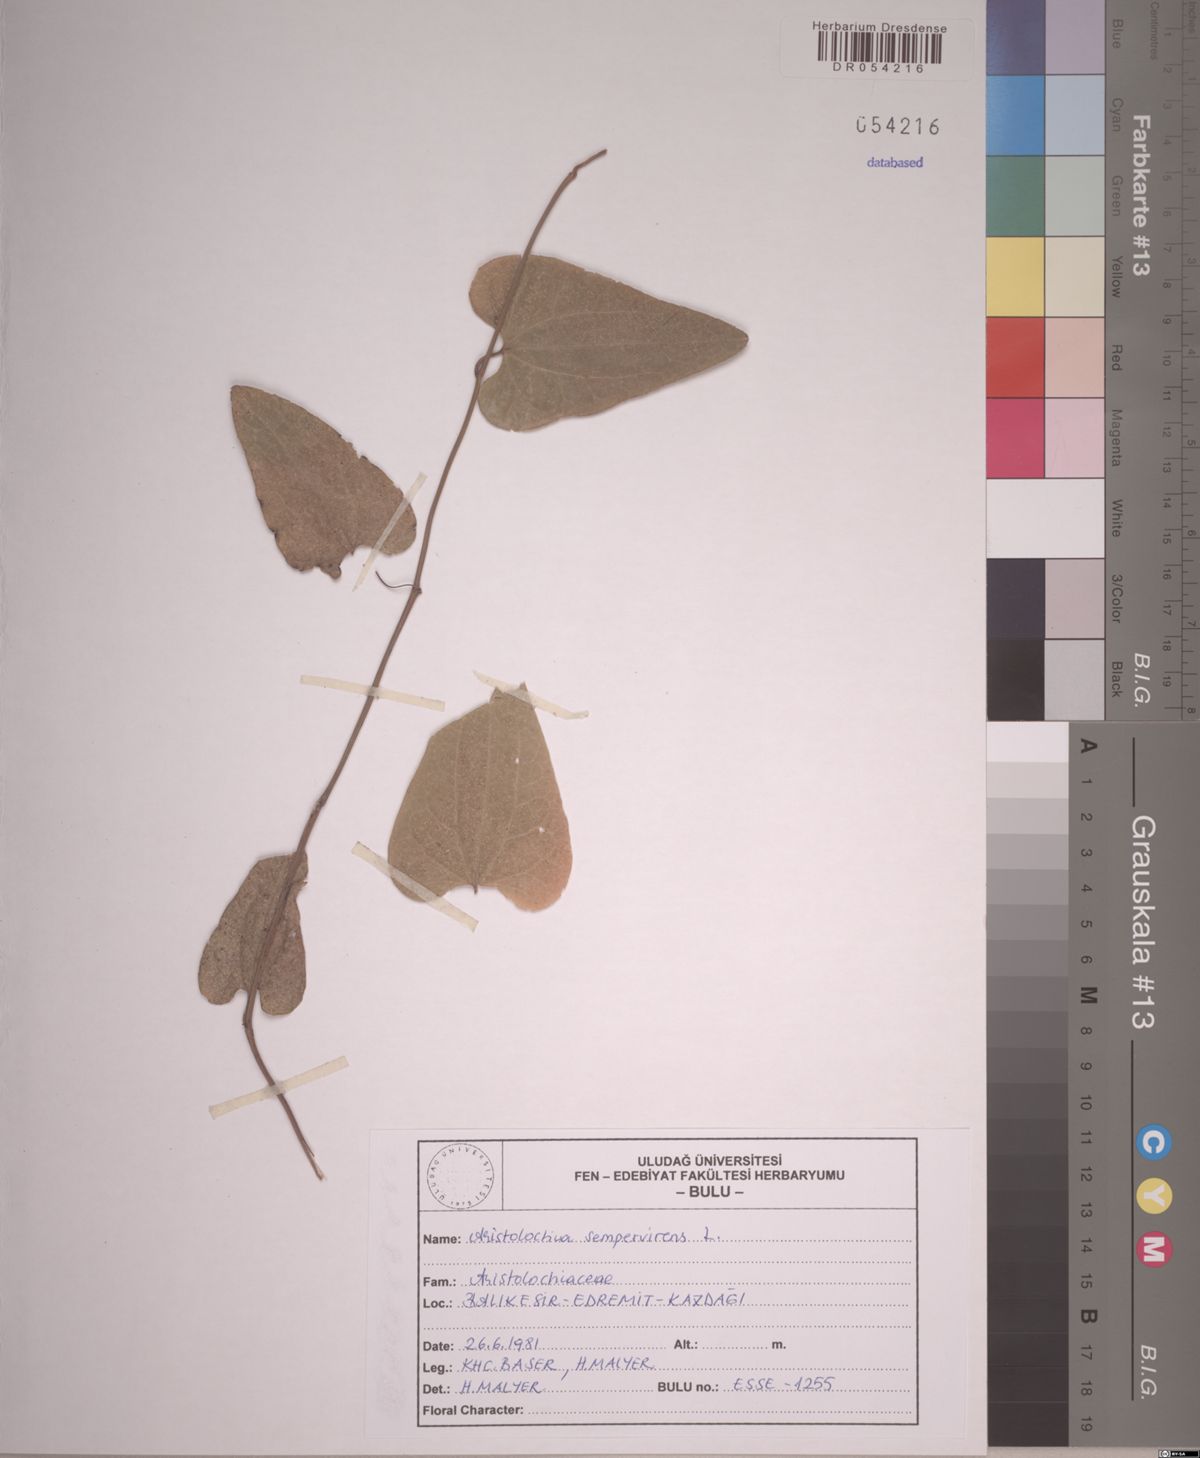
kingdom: Plantae
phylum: Tracheophyta
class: Magnoliopsida
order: Piperales
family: Aristolochiaceae
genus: Aristolochia
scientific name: Aristolochia sempervirens
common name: Long birthwort
